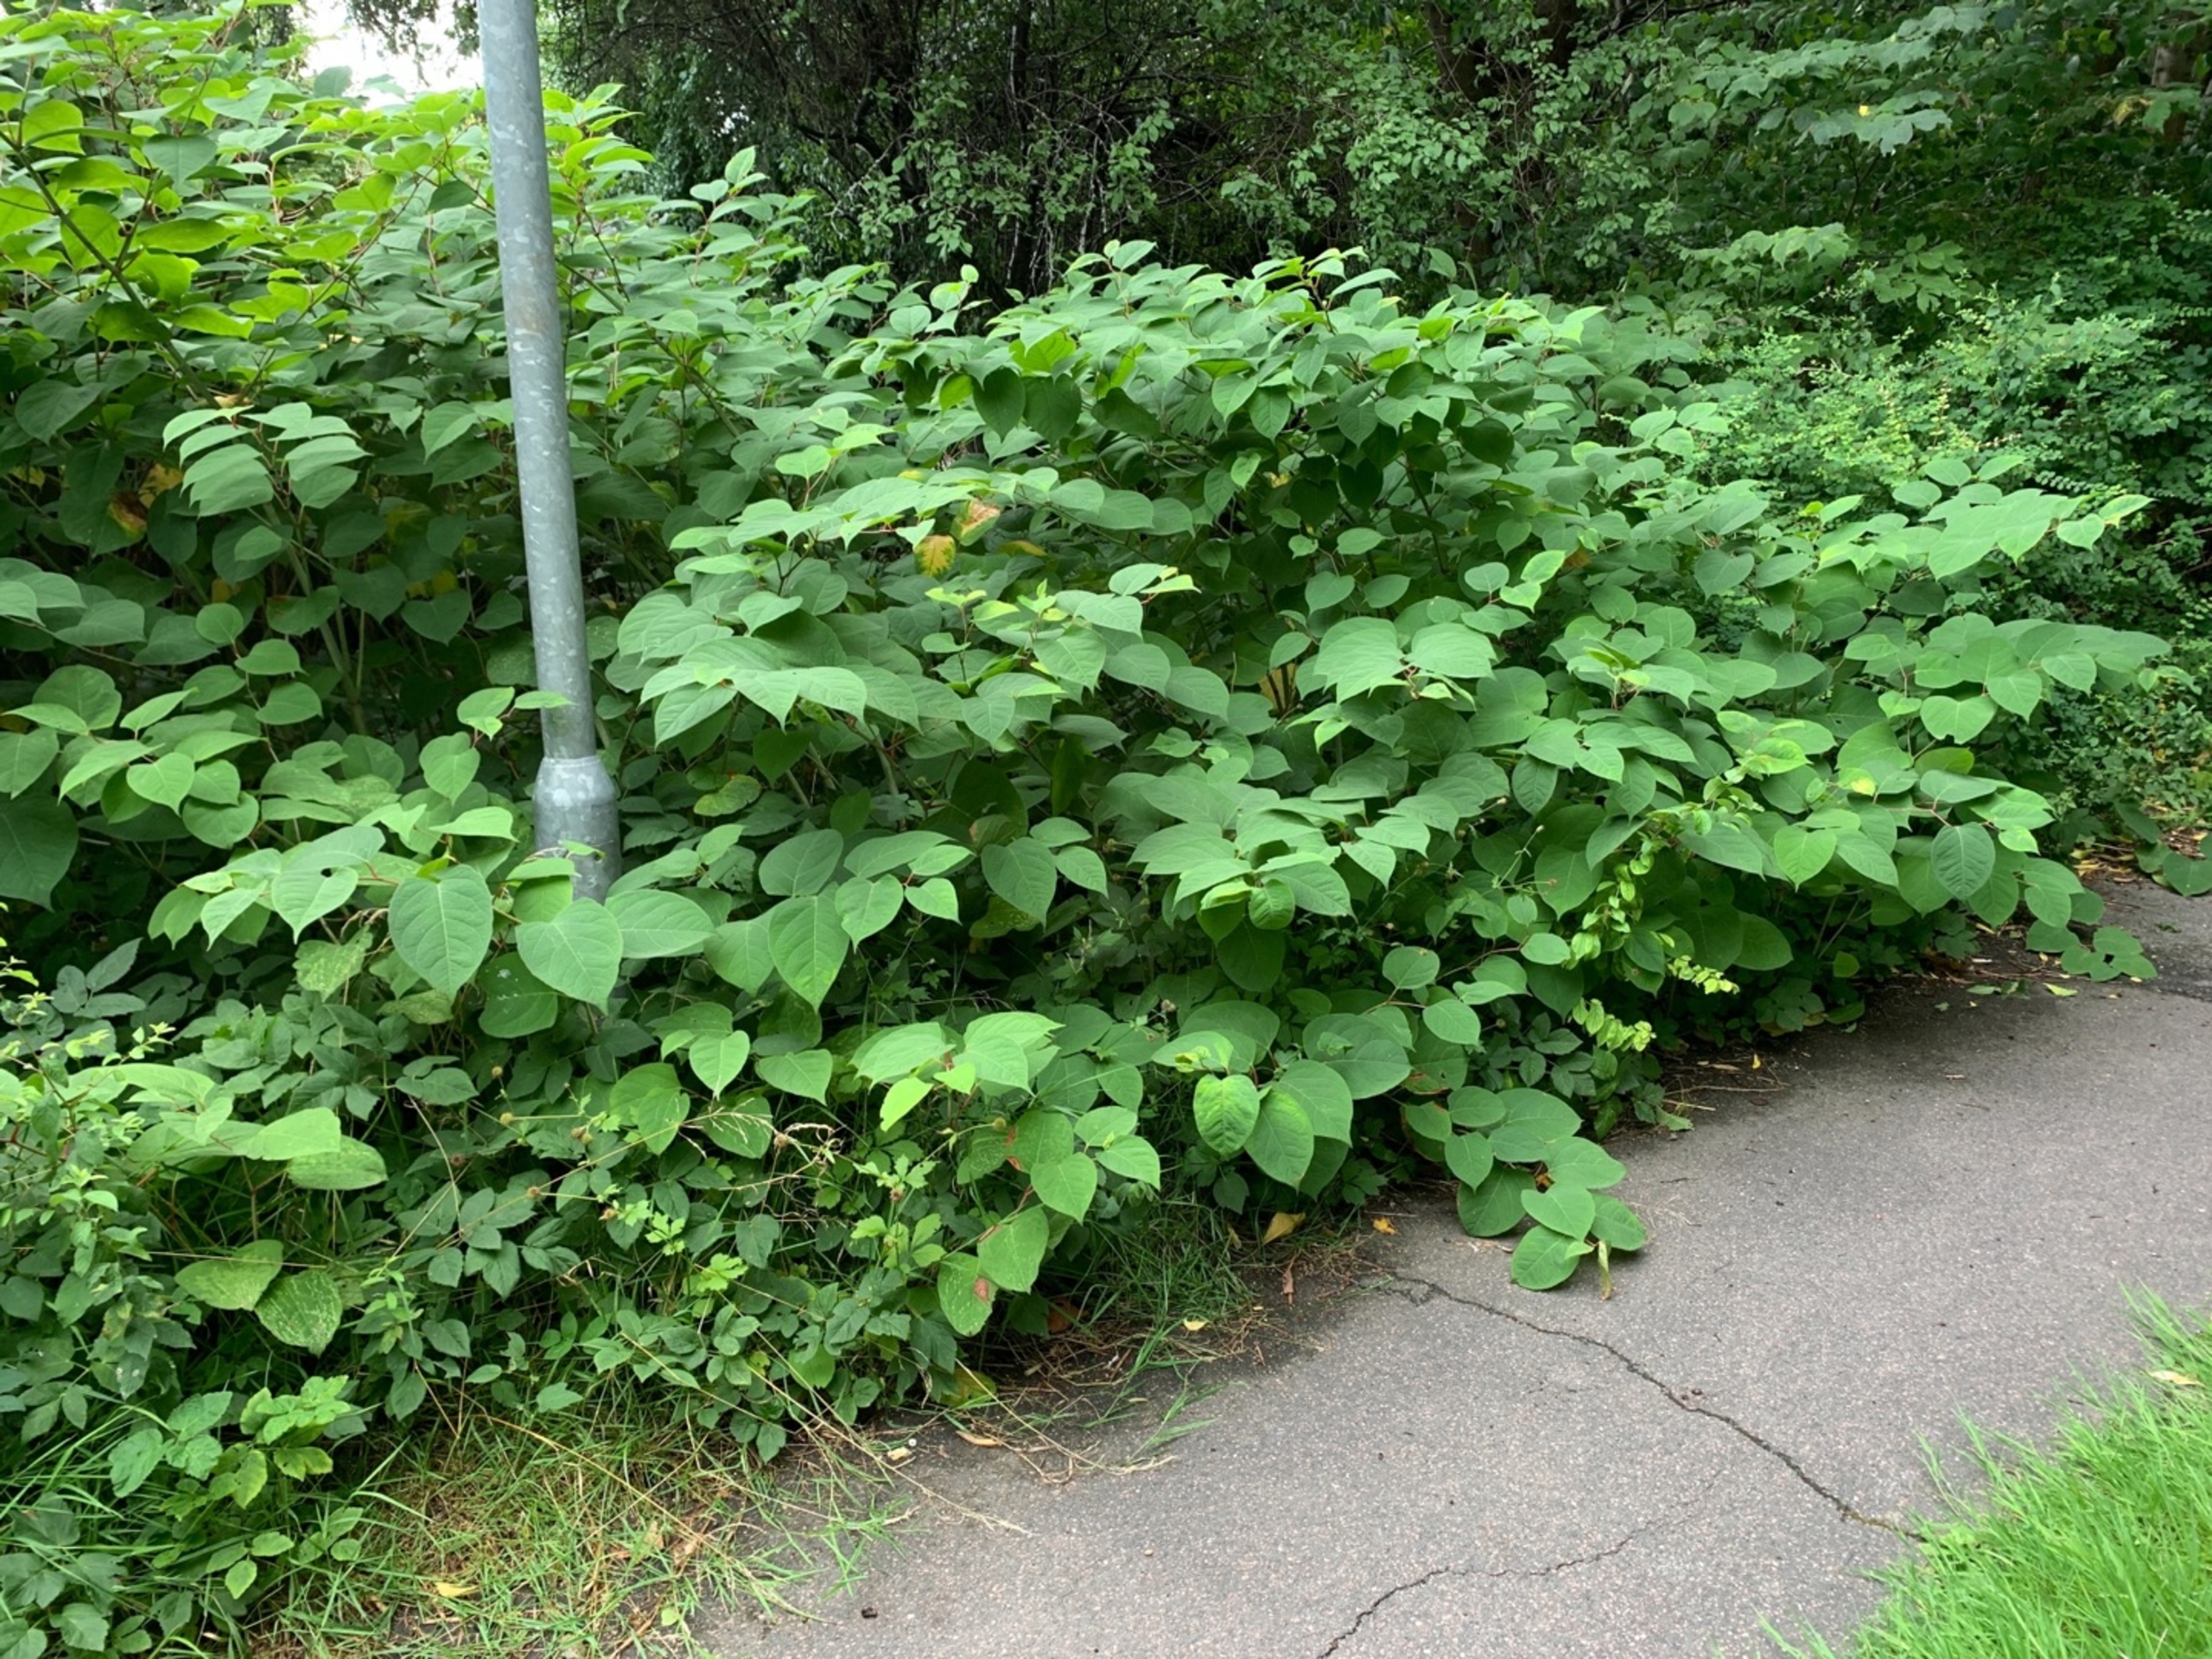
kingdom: Plantae
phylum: Tracheophyta
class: Magnoliopsida
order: Caryophyllales
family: Polygonaceae
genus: Reynoutria
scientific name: Reynoutria japonica
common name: Japan-pileurt
